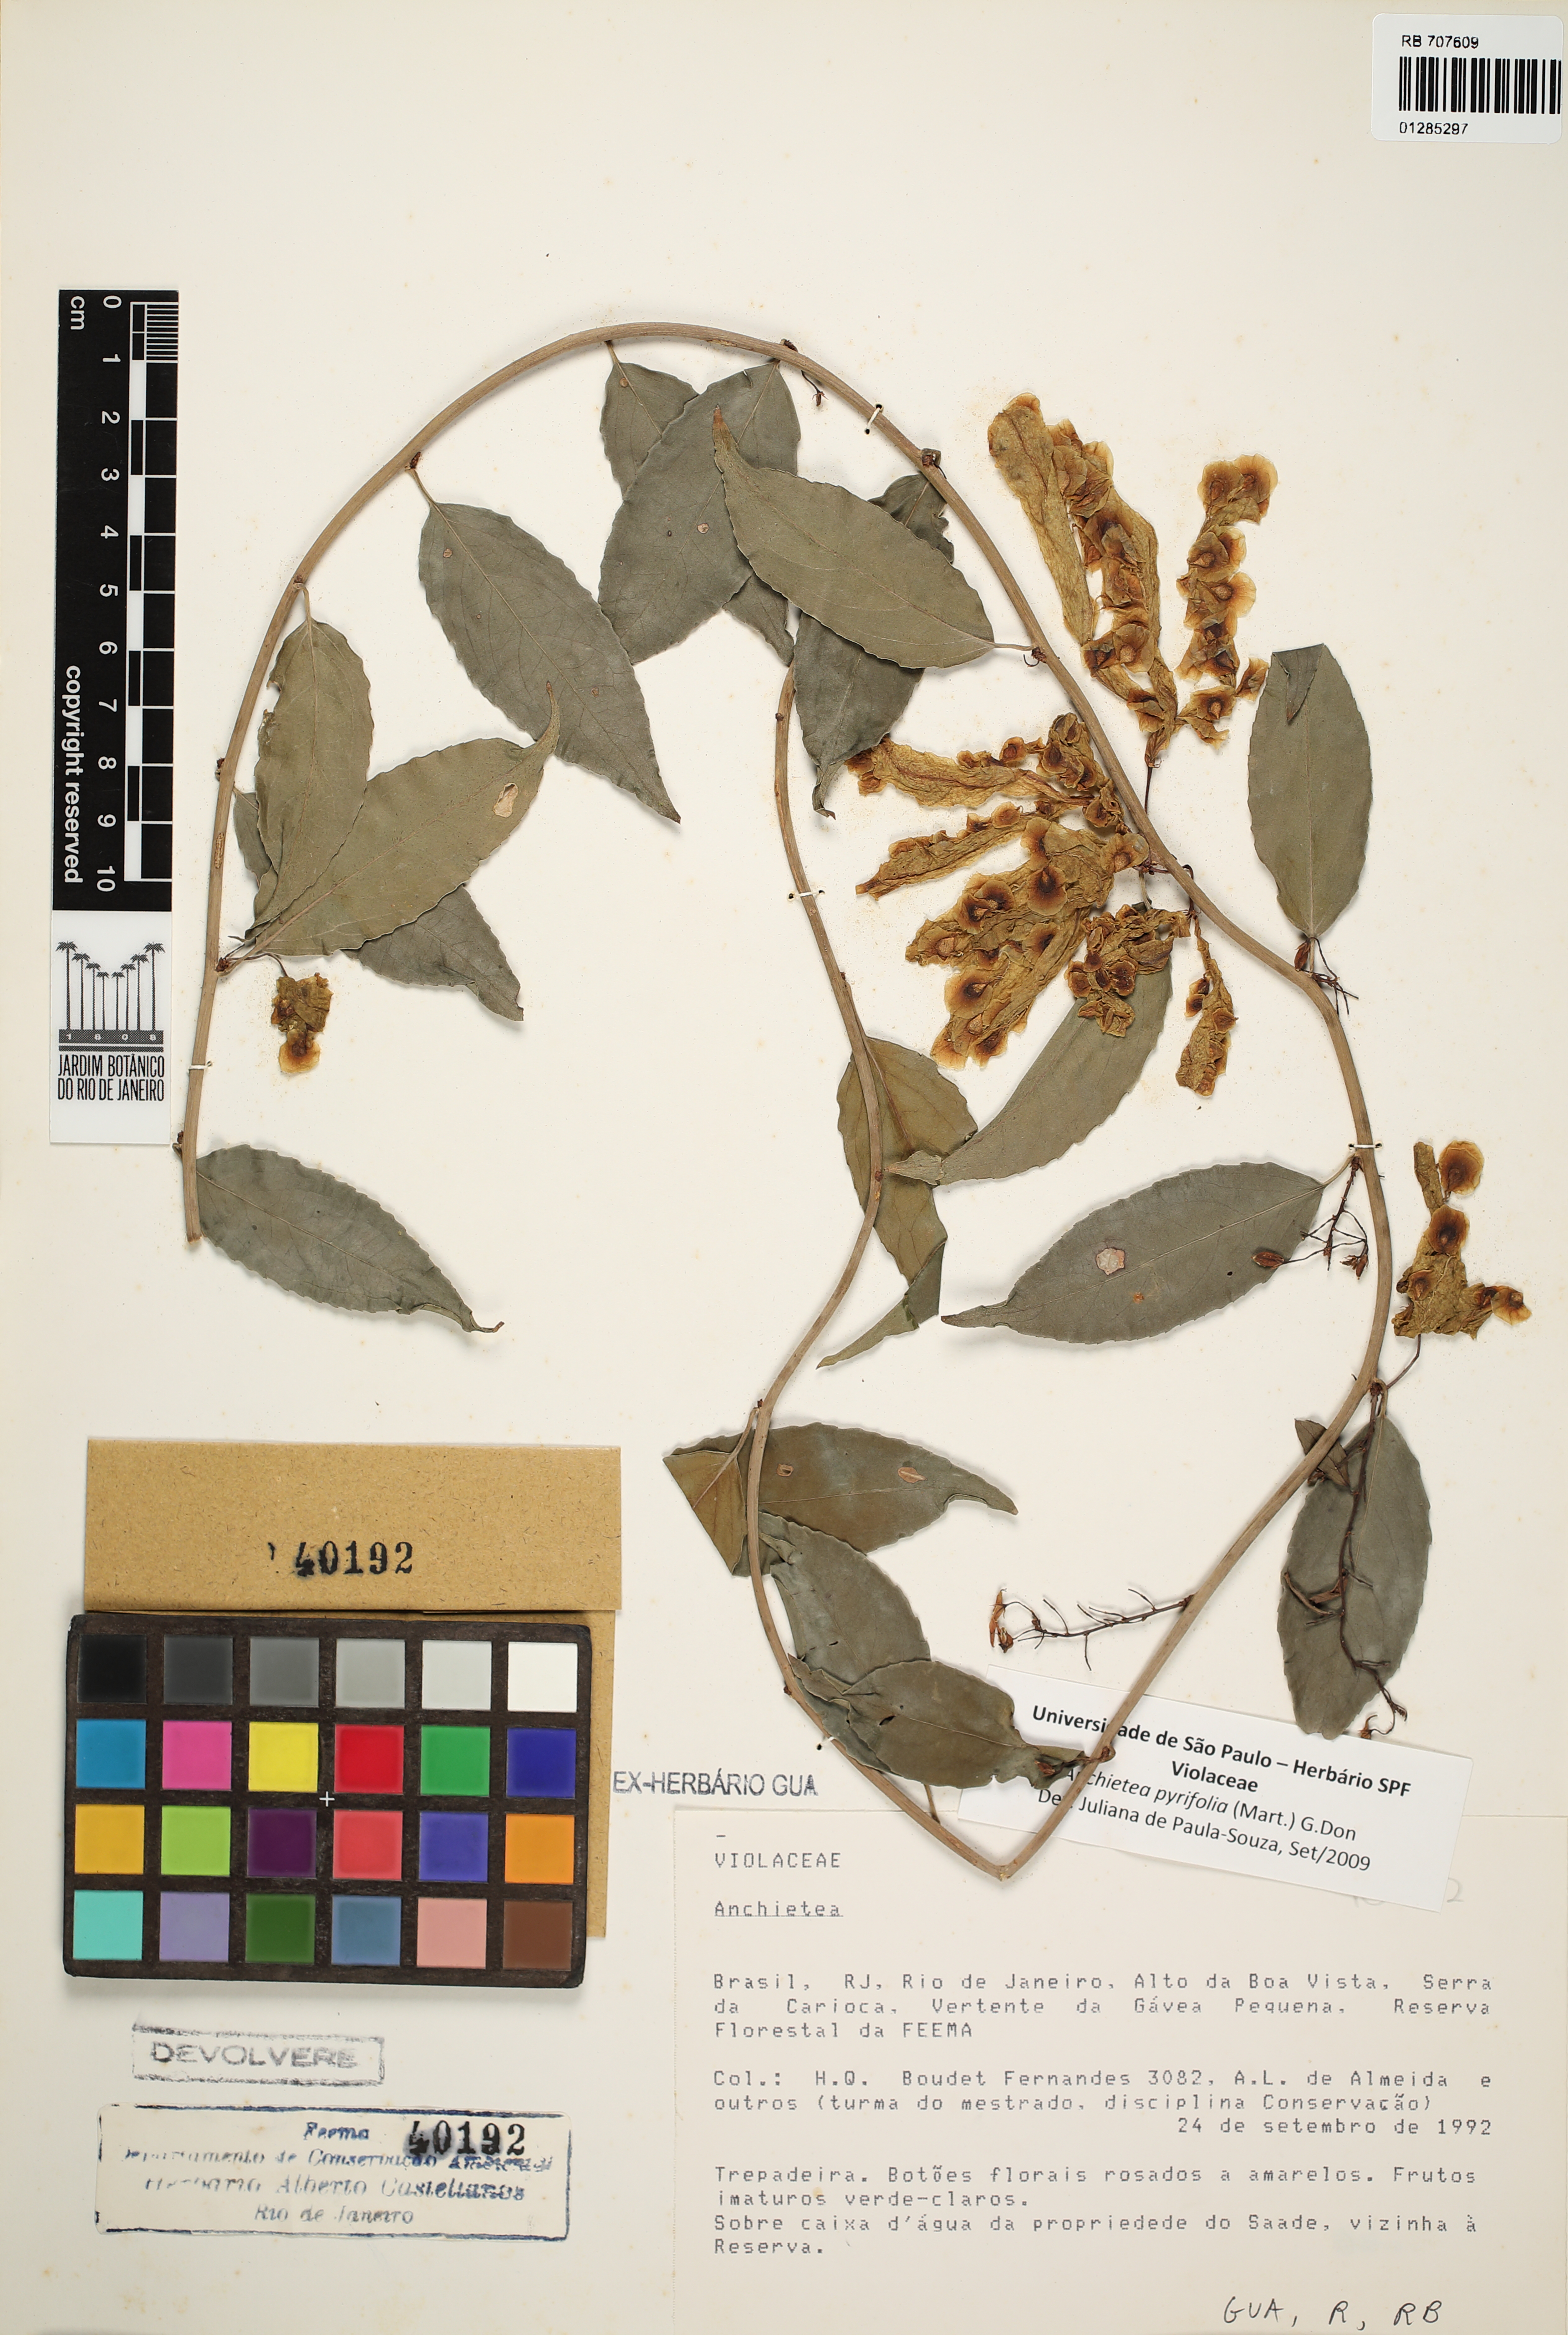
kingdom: Plantae
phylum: Tracheophyta
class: Magnoliopsida
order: Malpighiales
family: Violaceae
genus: Anchietea
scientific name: Anchietea pyrifolia
